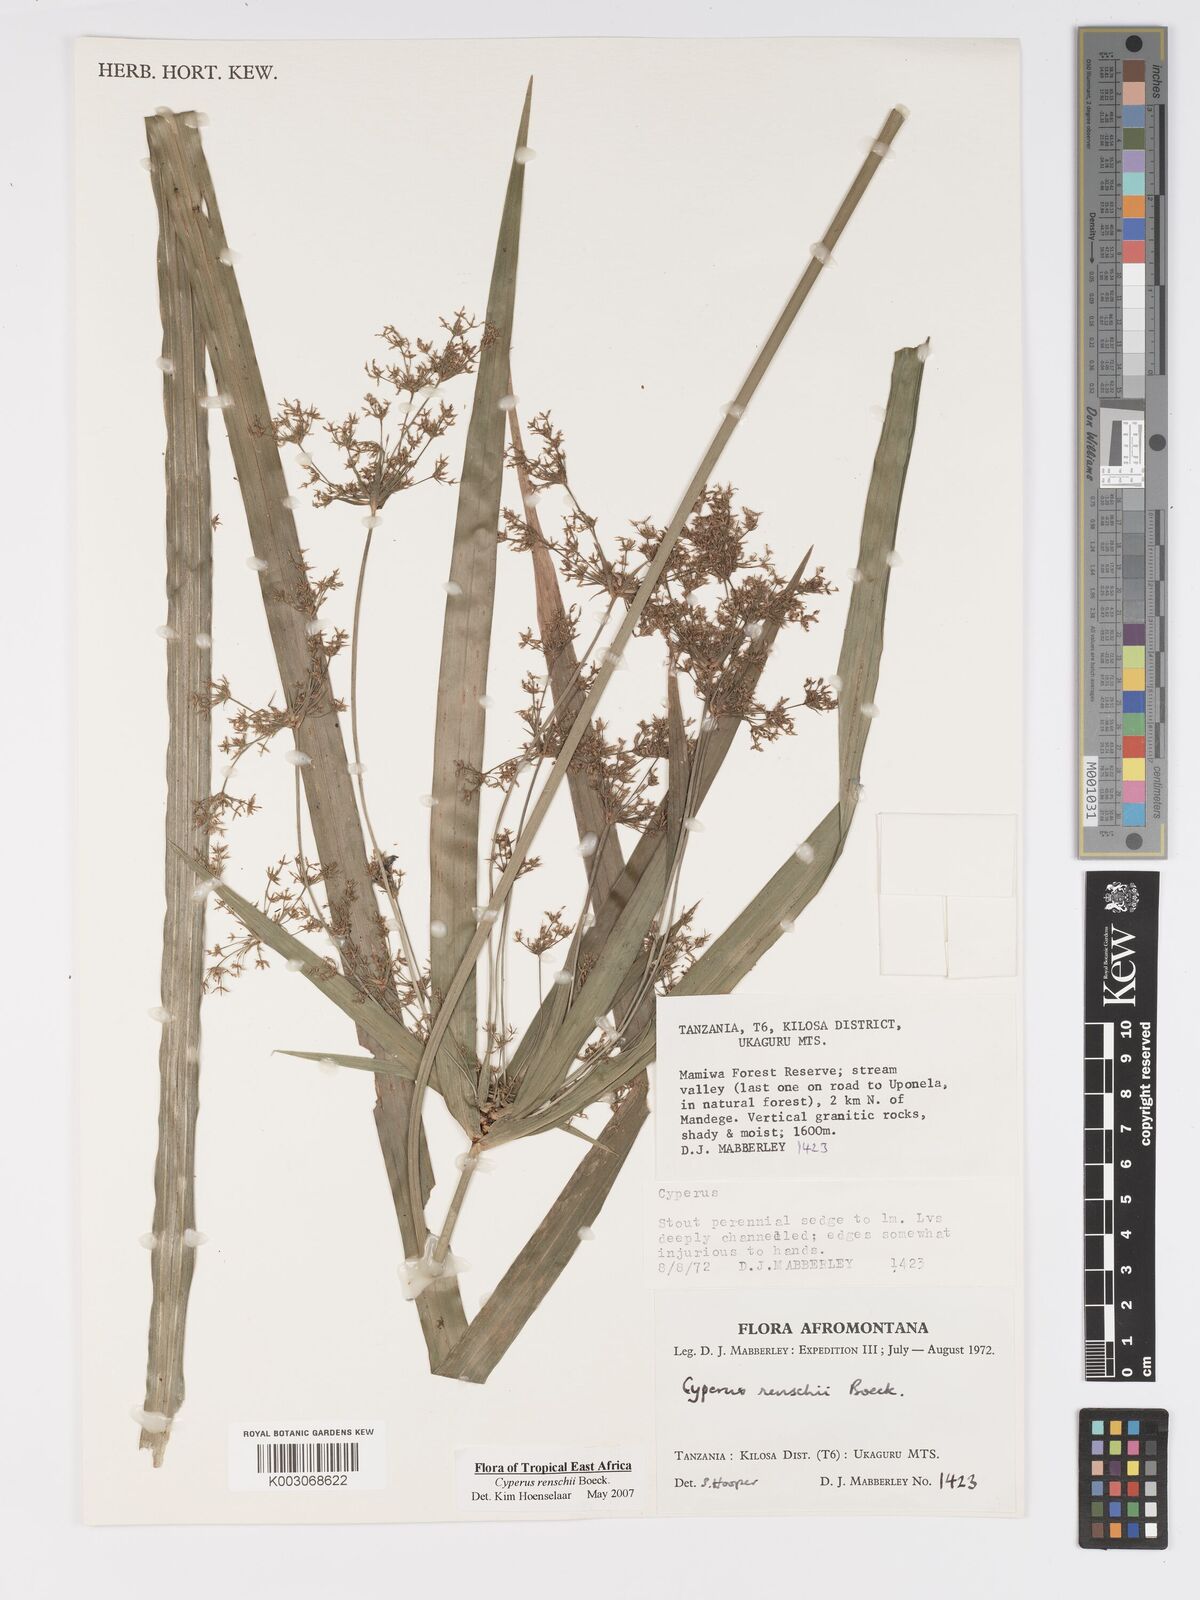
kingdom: Plantae
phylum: Tracheophyta
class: Liliopsida
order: Poales
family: Cyperaceae
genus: Cyperus
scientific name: Cyperus renschii
